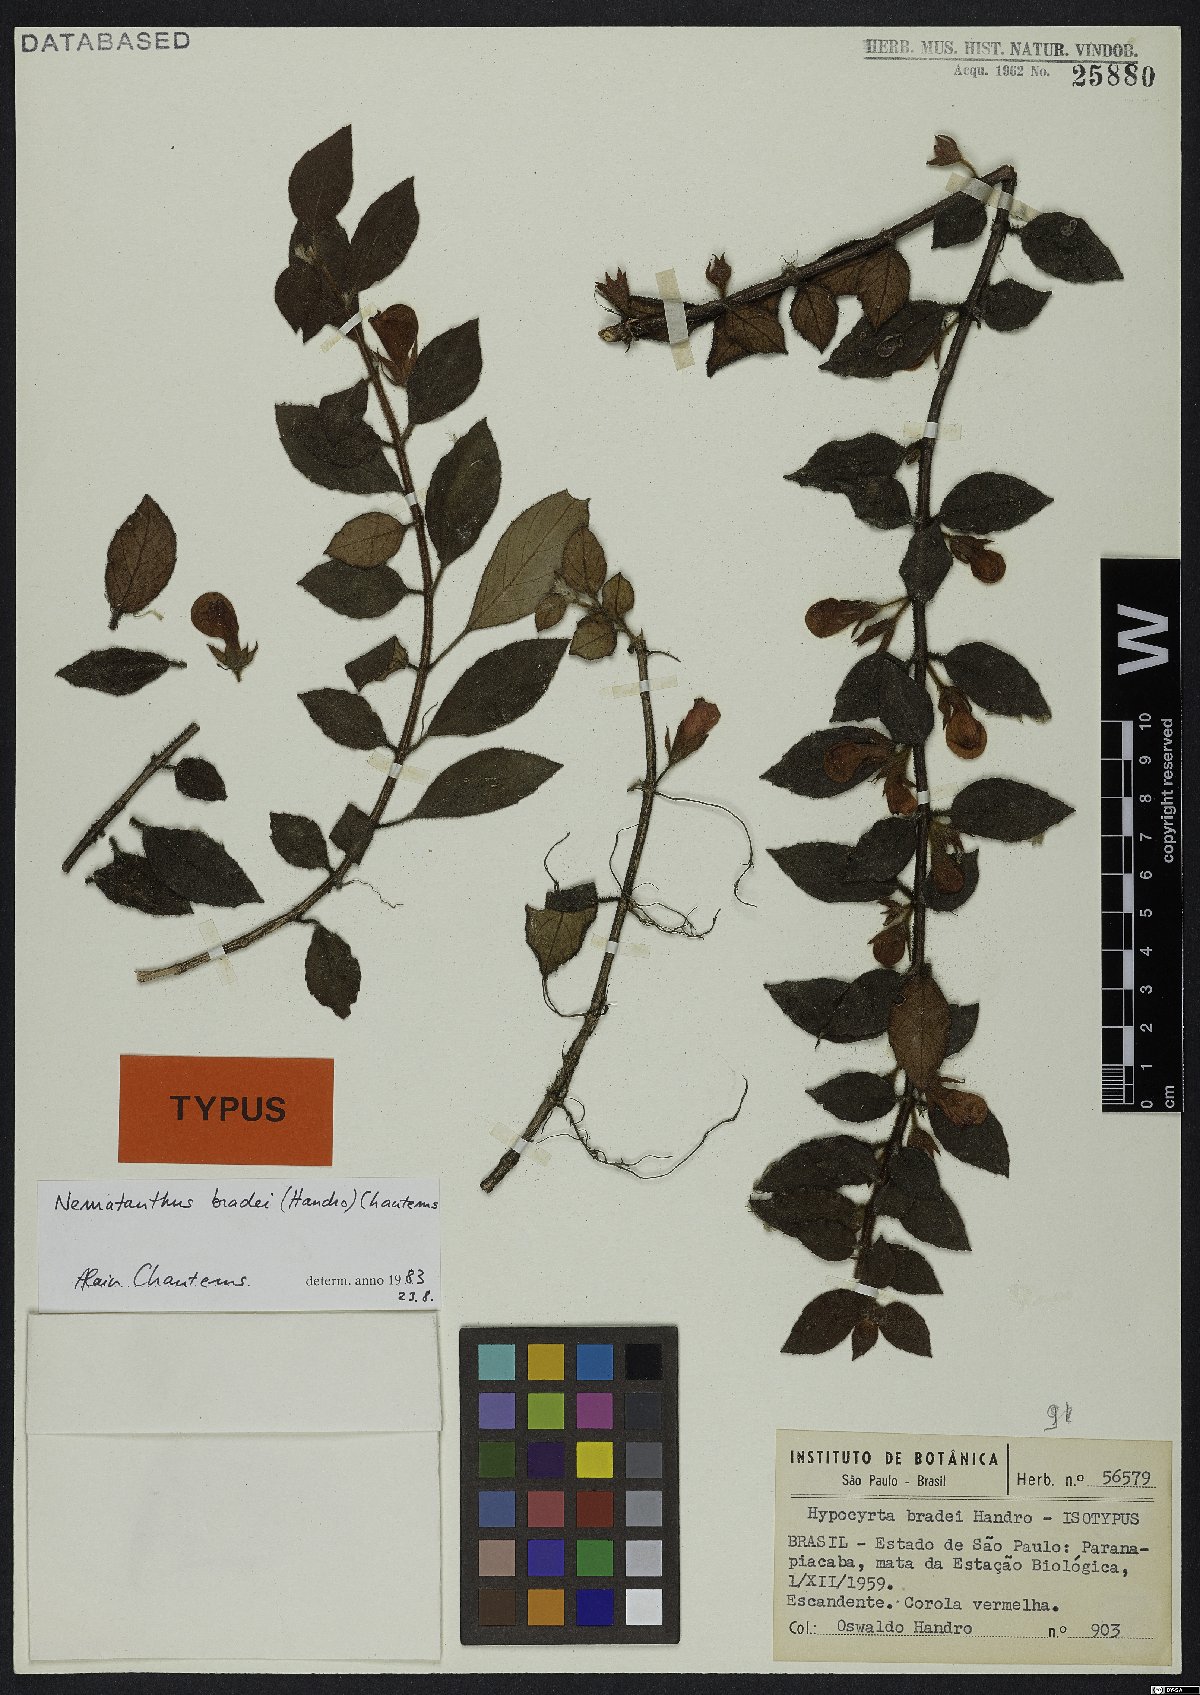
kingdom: Plantae
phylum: Tracheophyta
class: Magnoliopsida
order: Lamiales
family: Gesneriaceae
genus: Nematanthus
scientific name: Nematanthus bradei
